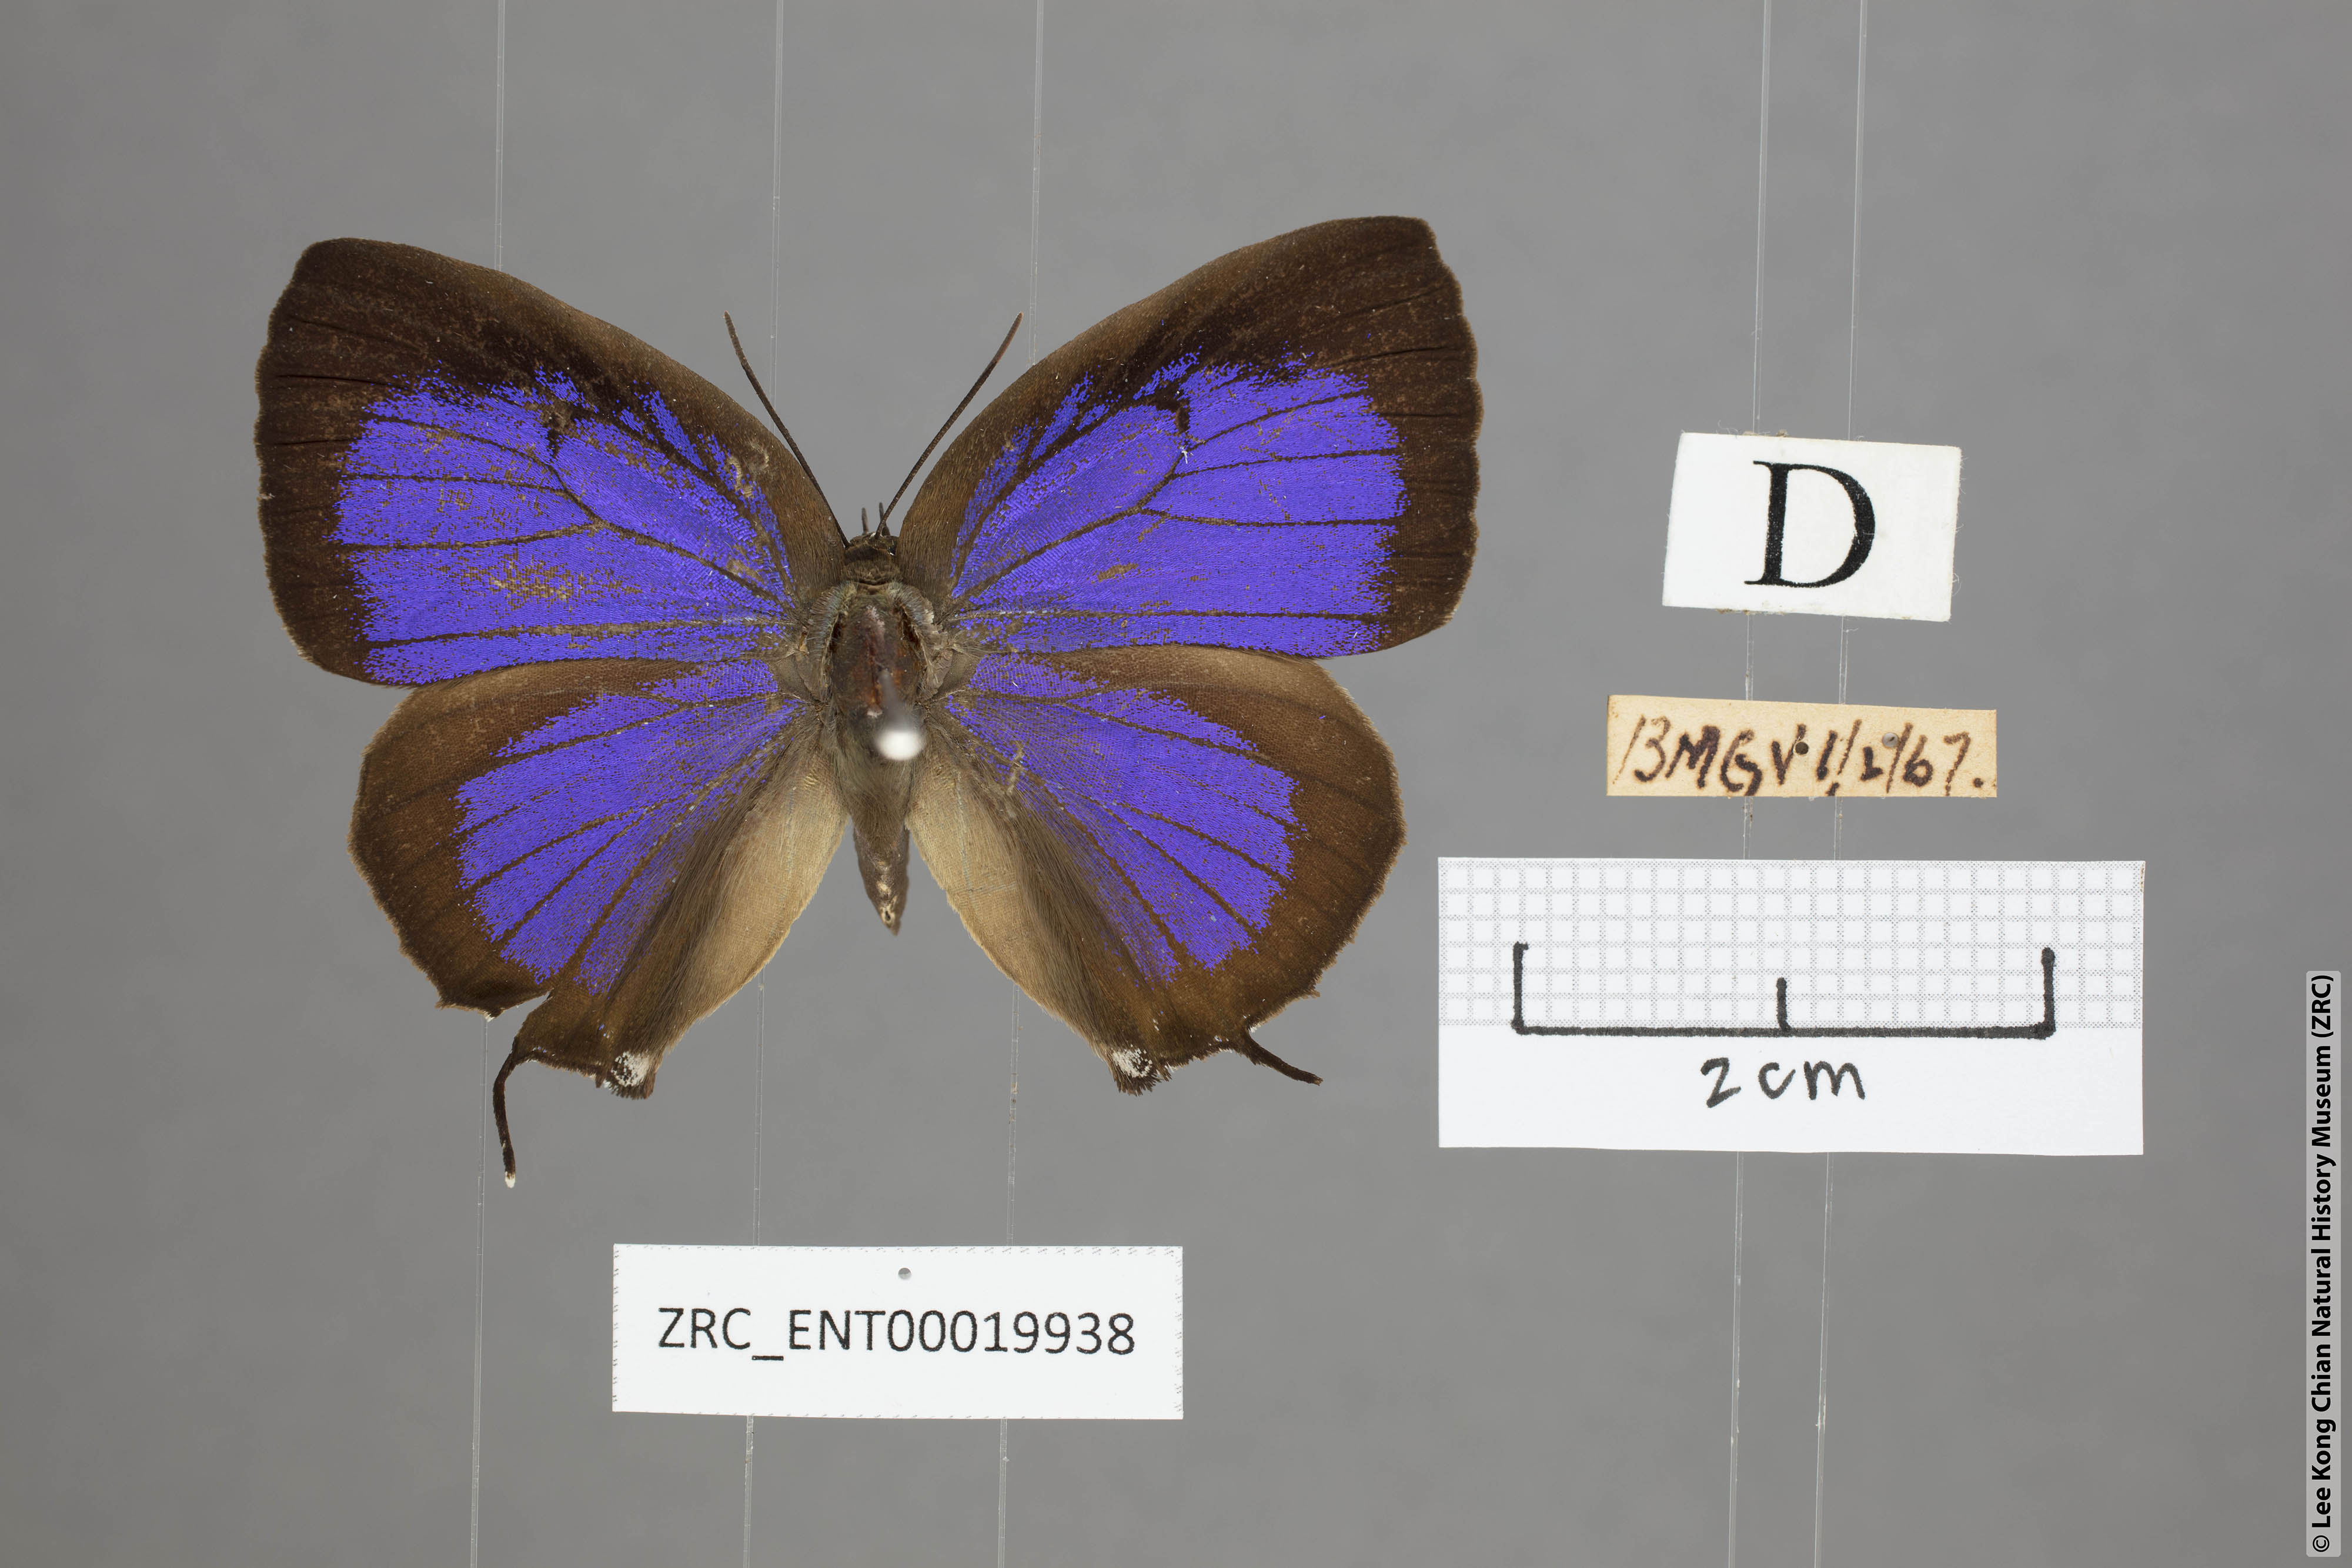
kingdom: Animalia
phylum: Arthropoda
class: Insecta
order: Lepidoptera
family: Lycaenidae
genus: Arhopala
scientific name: Arhopala zambra
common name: Zambra oakblue
